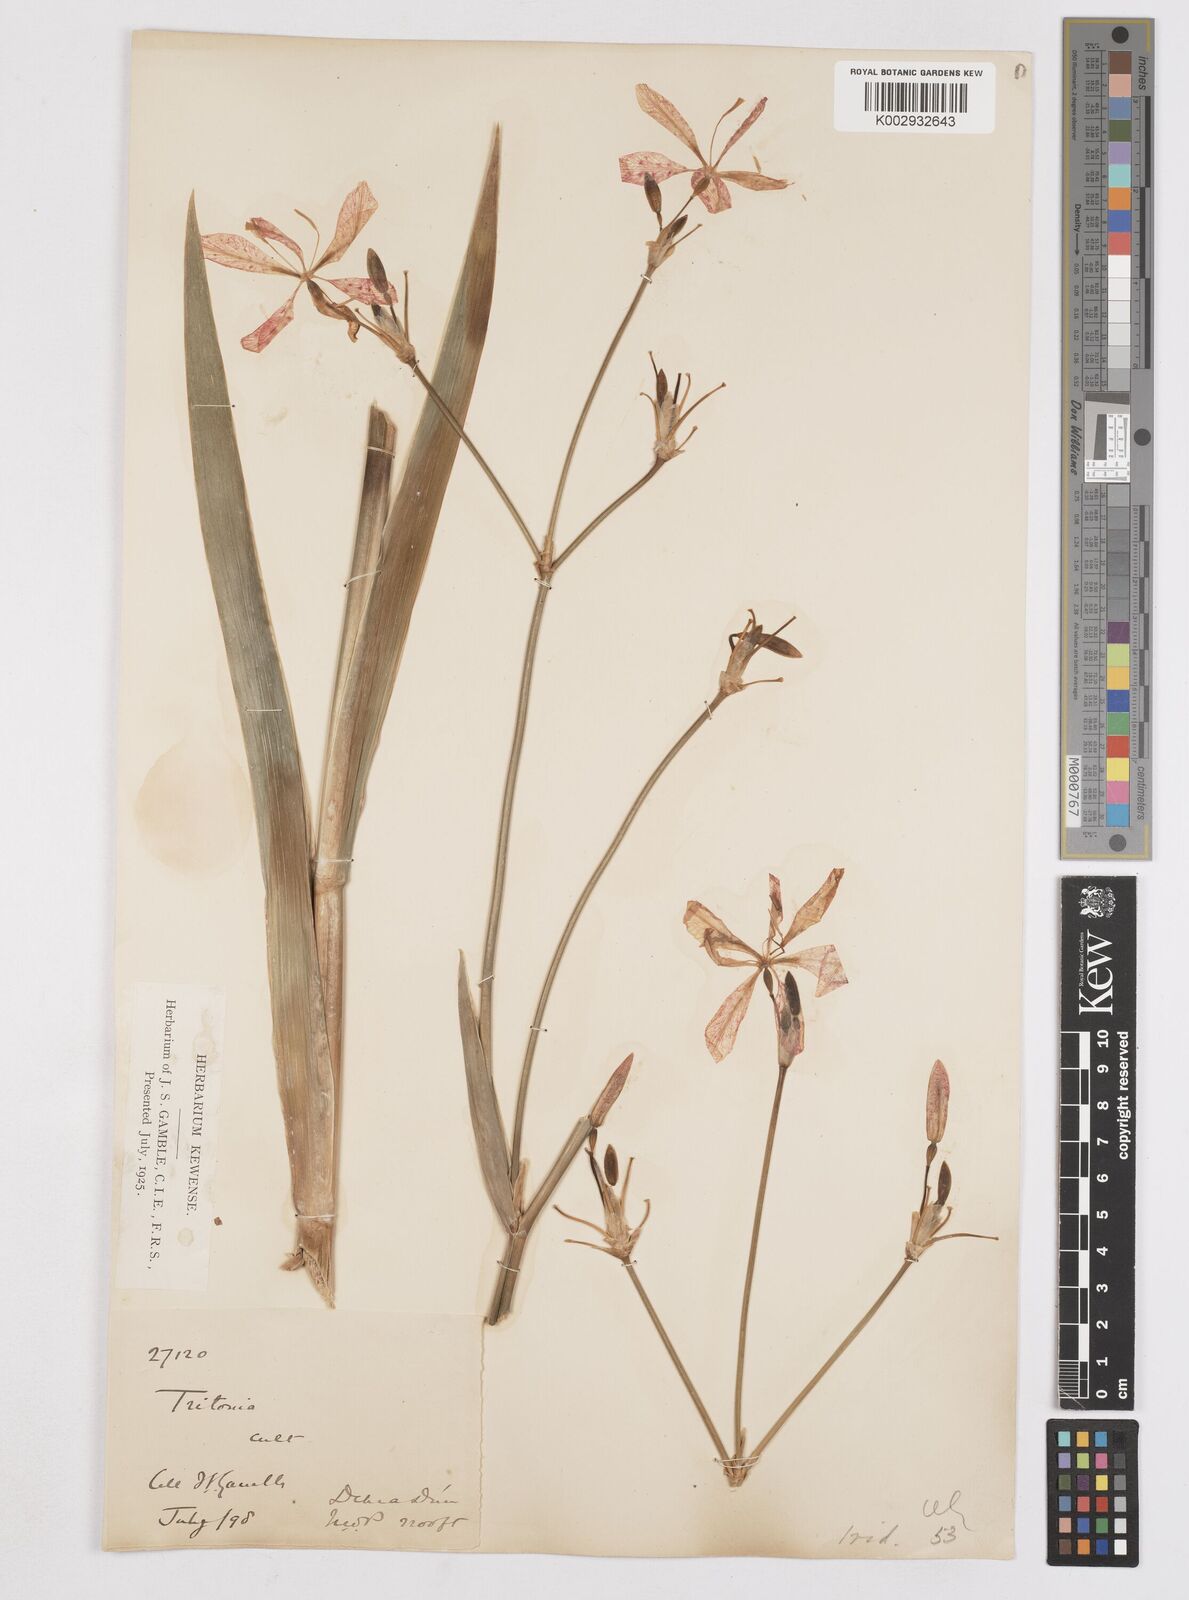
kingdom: Plantae
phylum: Tracheophyta
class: Liliopsida
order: Asparagales
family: Iridaceae
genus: Iris
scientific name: Iris
